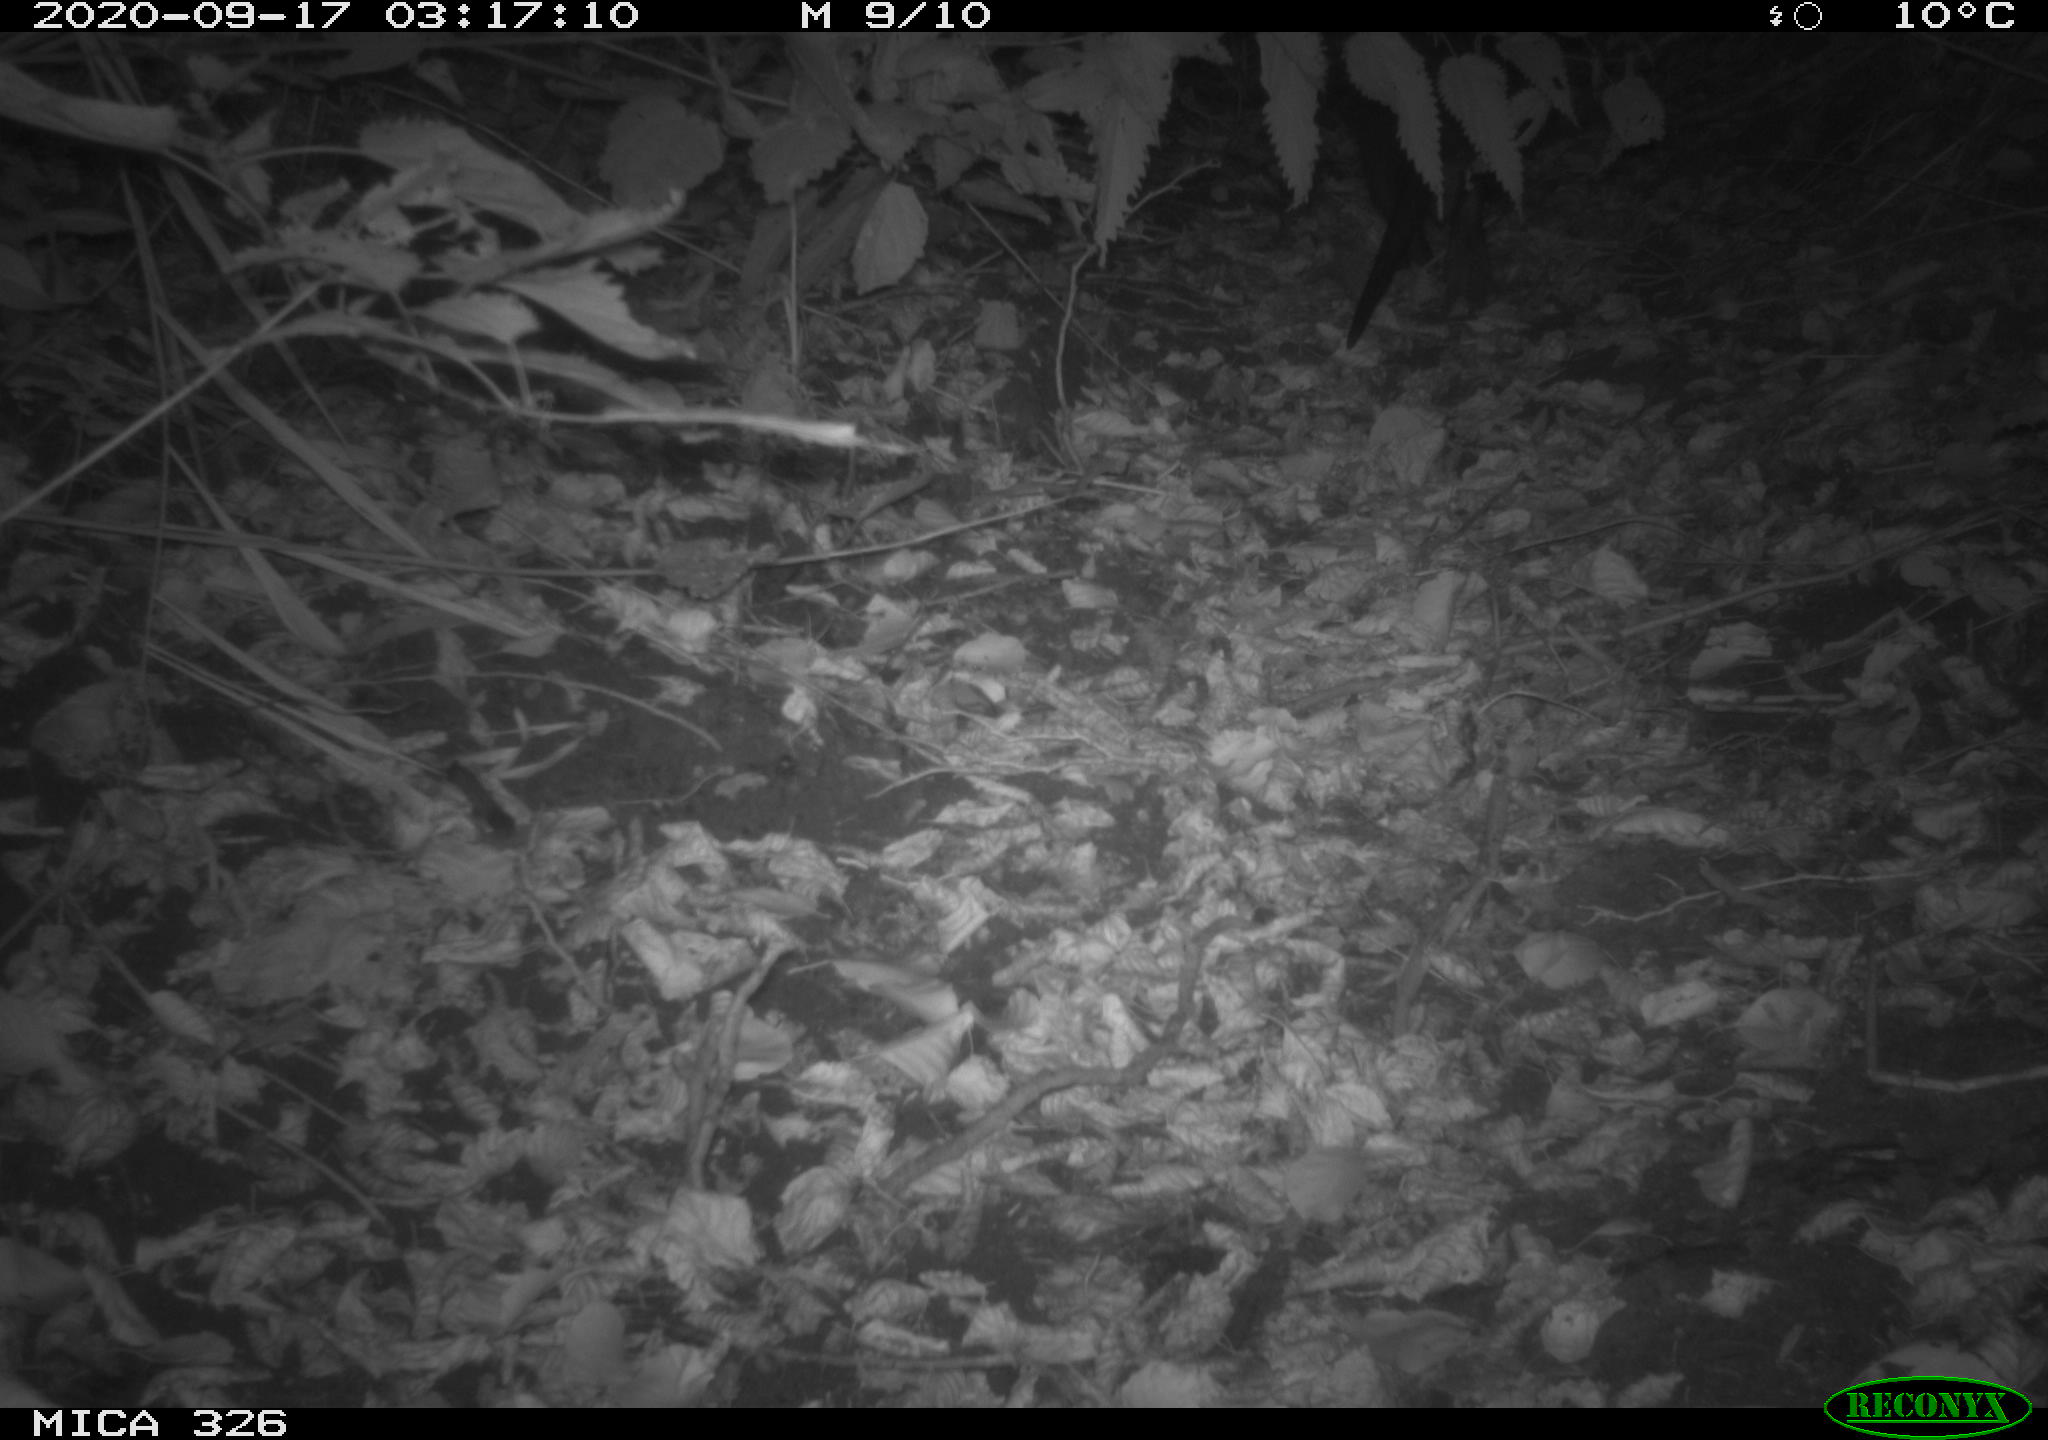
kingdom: Animalia
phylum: Chordata
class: Mammalia
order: Rodentia
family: Myocastoridae
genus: Myocastor
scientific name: Myocastor coypus
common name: Coypu
